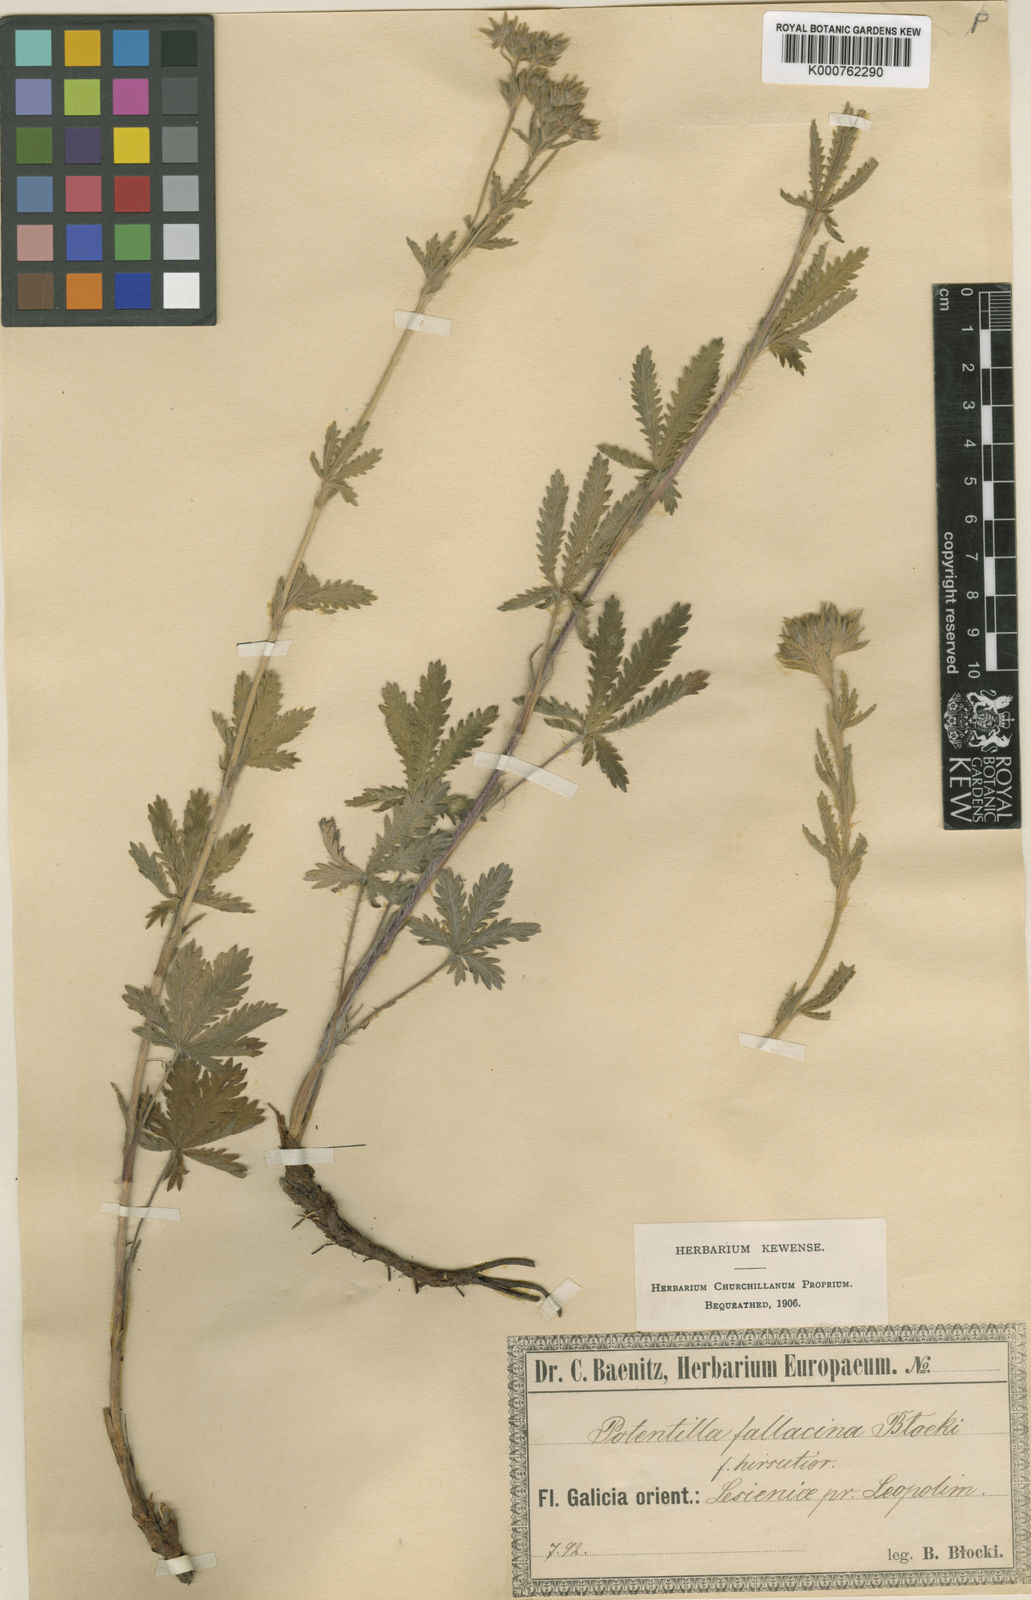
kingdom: Plantae
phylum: Tracheophyta
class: Magnoliopsida
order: Rosales
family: Rosaceae
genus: Potentilla
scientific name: Potentilla recta
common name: Sulphur cinquefoil
